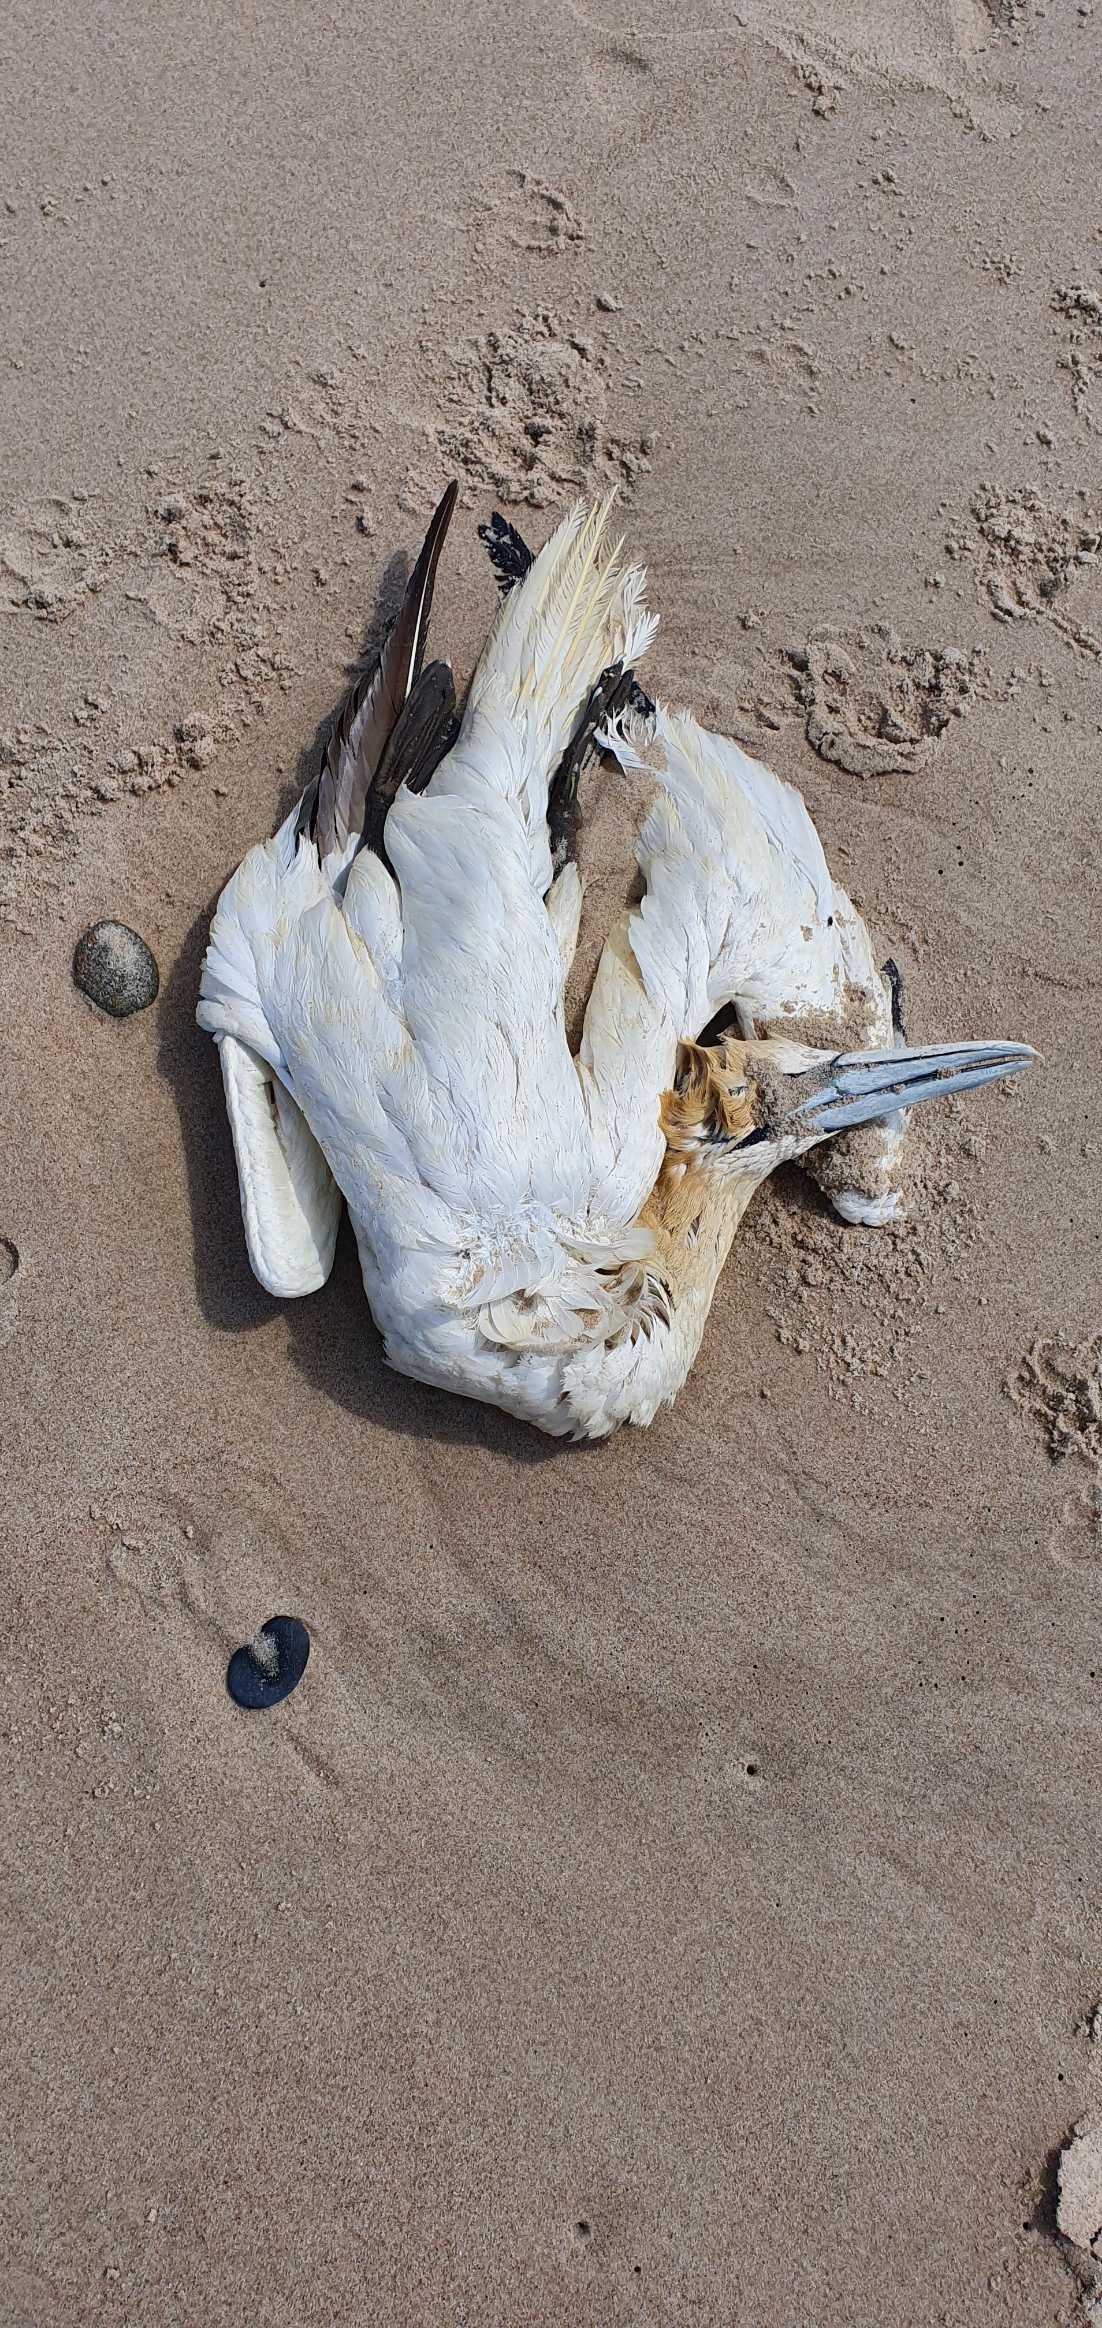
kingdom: Animalia
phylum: Chordata
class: Aves
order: Suliformes
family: Sulidae
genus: Morus
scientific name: Morus bassanus
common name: Sule
